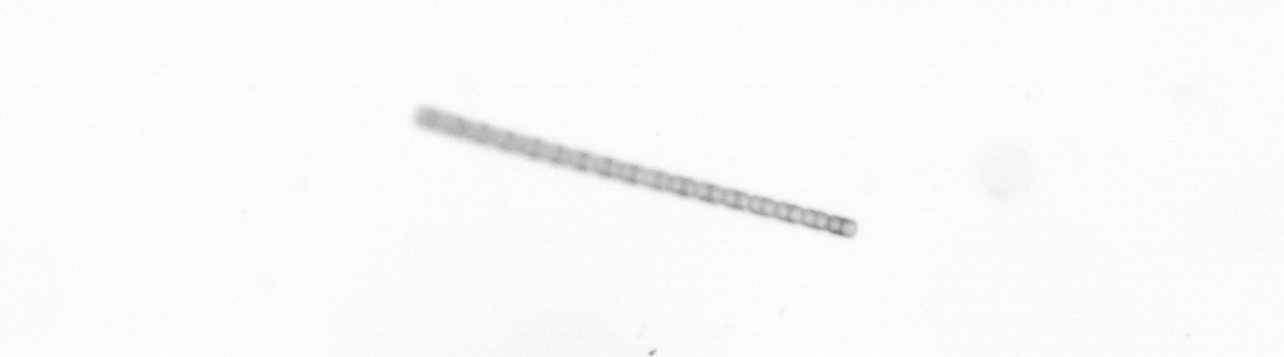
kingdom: Chromista
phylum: Ochrophyta
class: Bacillariophyceae
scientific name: Bacillariophyceae
